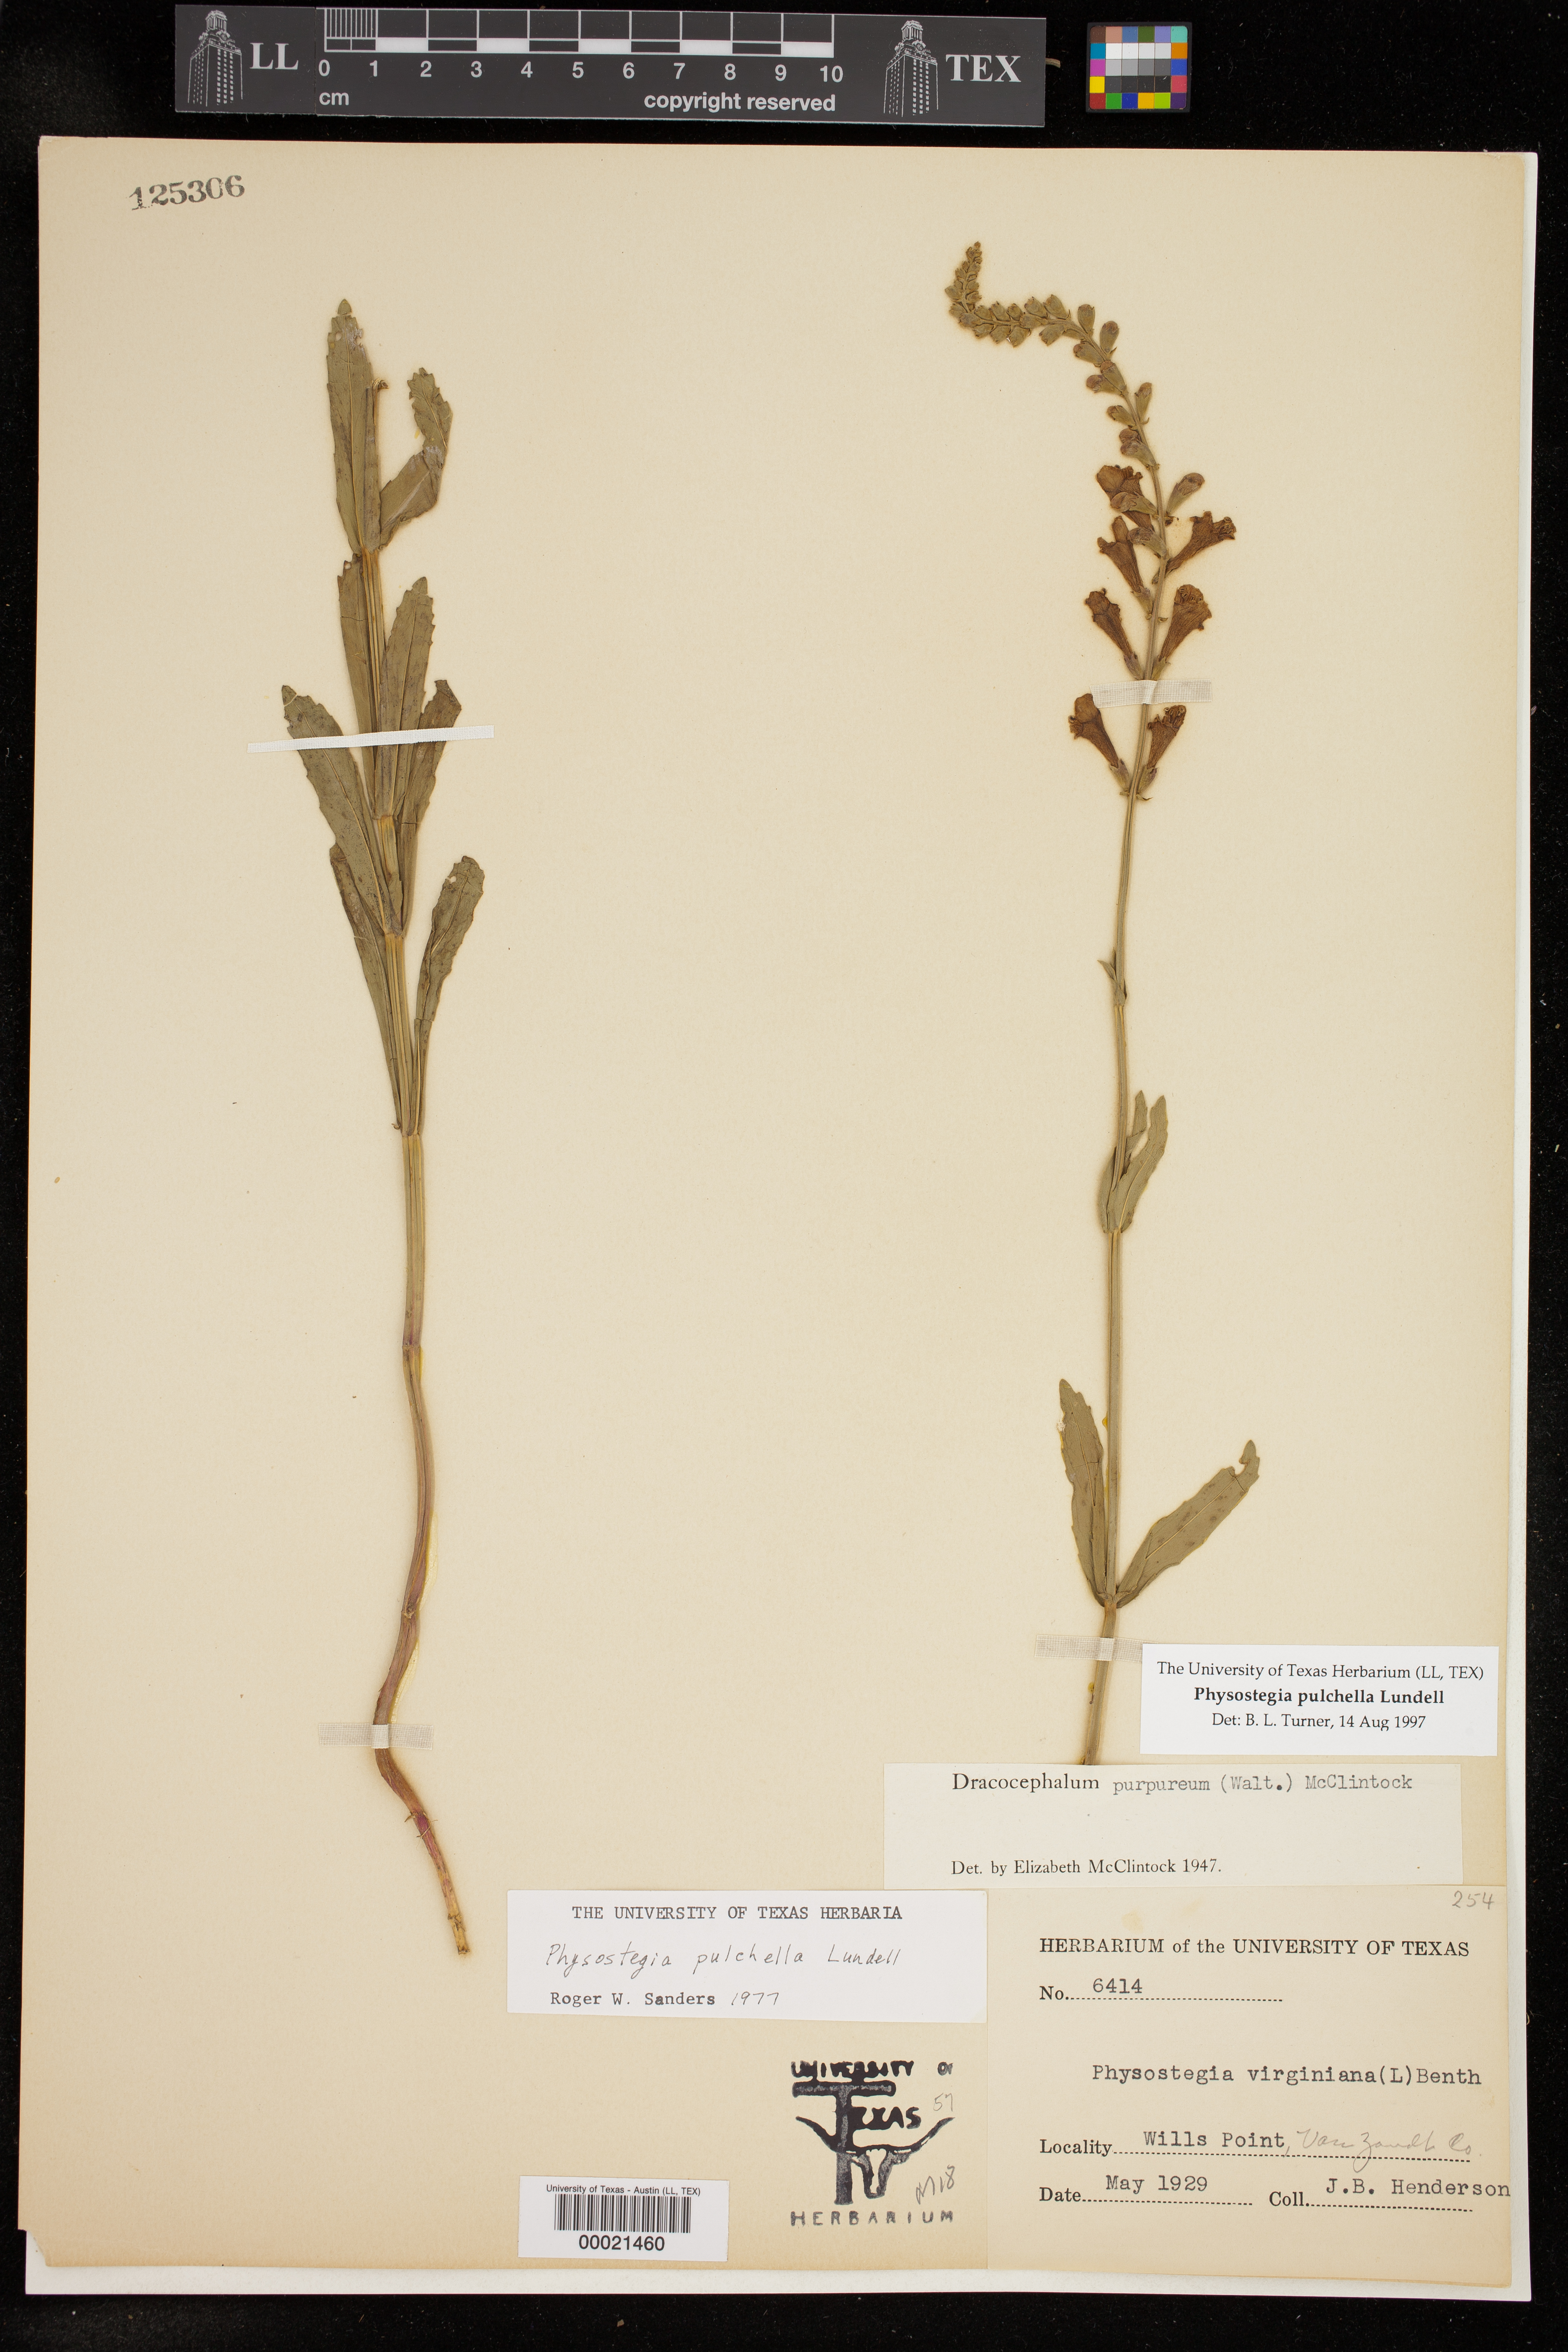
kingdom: Plantae
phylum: Tracheophyta
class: Magnoliopsida
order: Lamiales
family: Lamiaceae
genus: Physostegia
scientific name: Physostegia virginiana
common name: Obedient-plant
